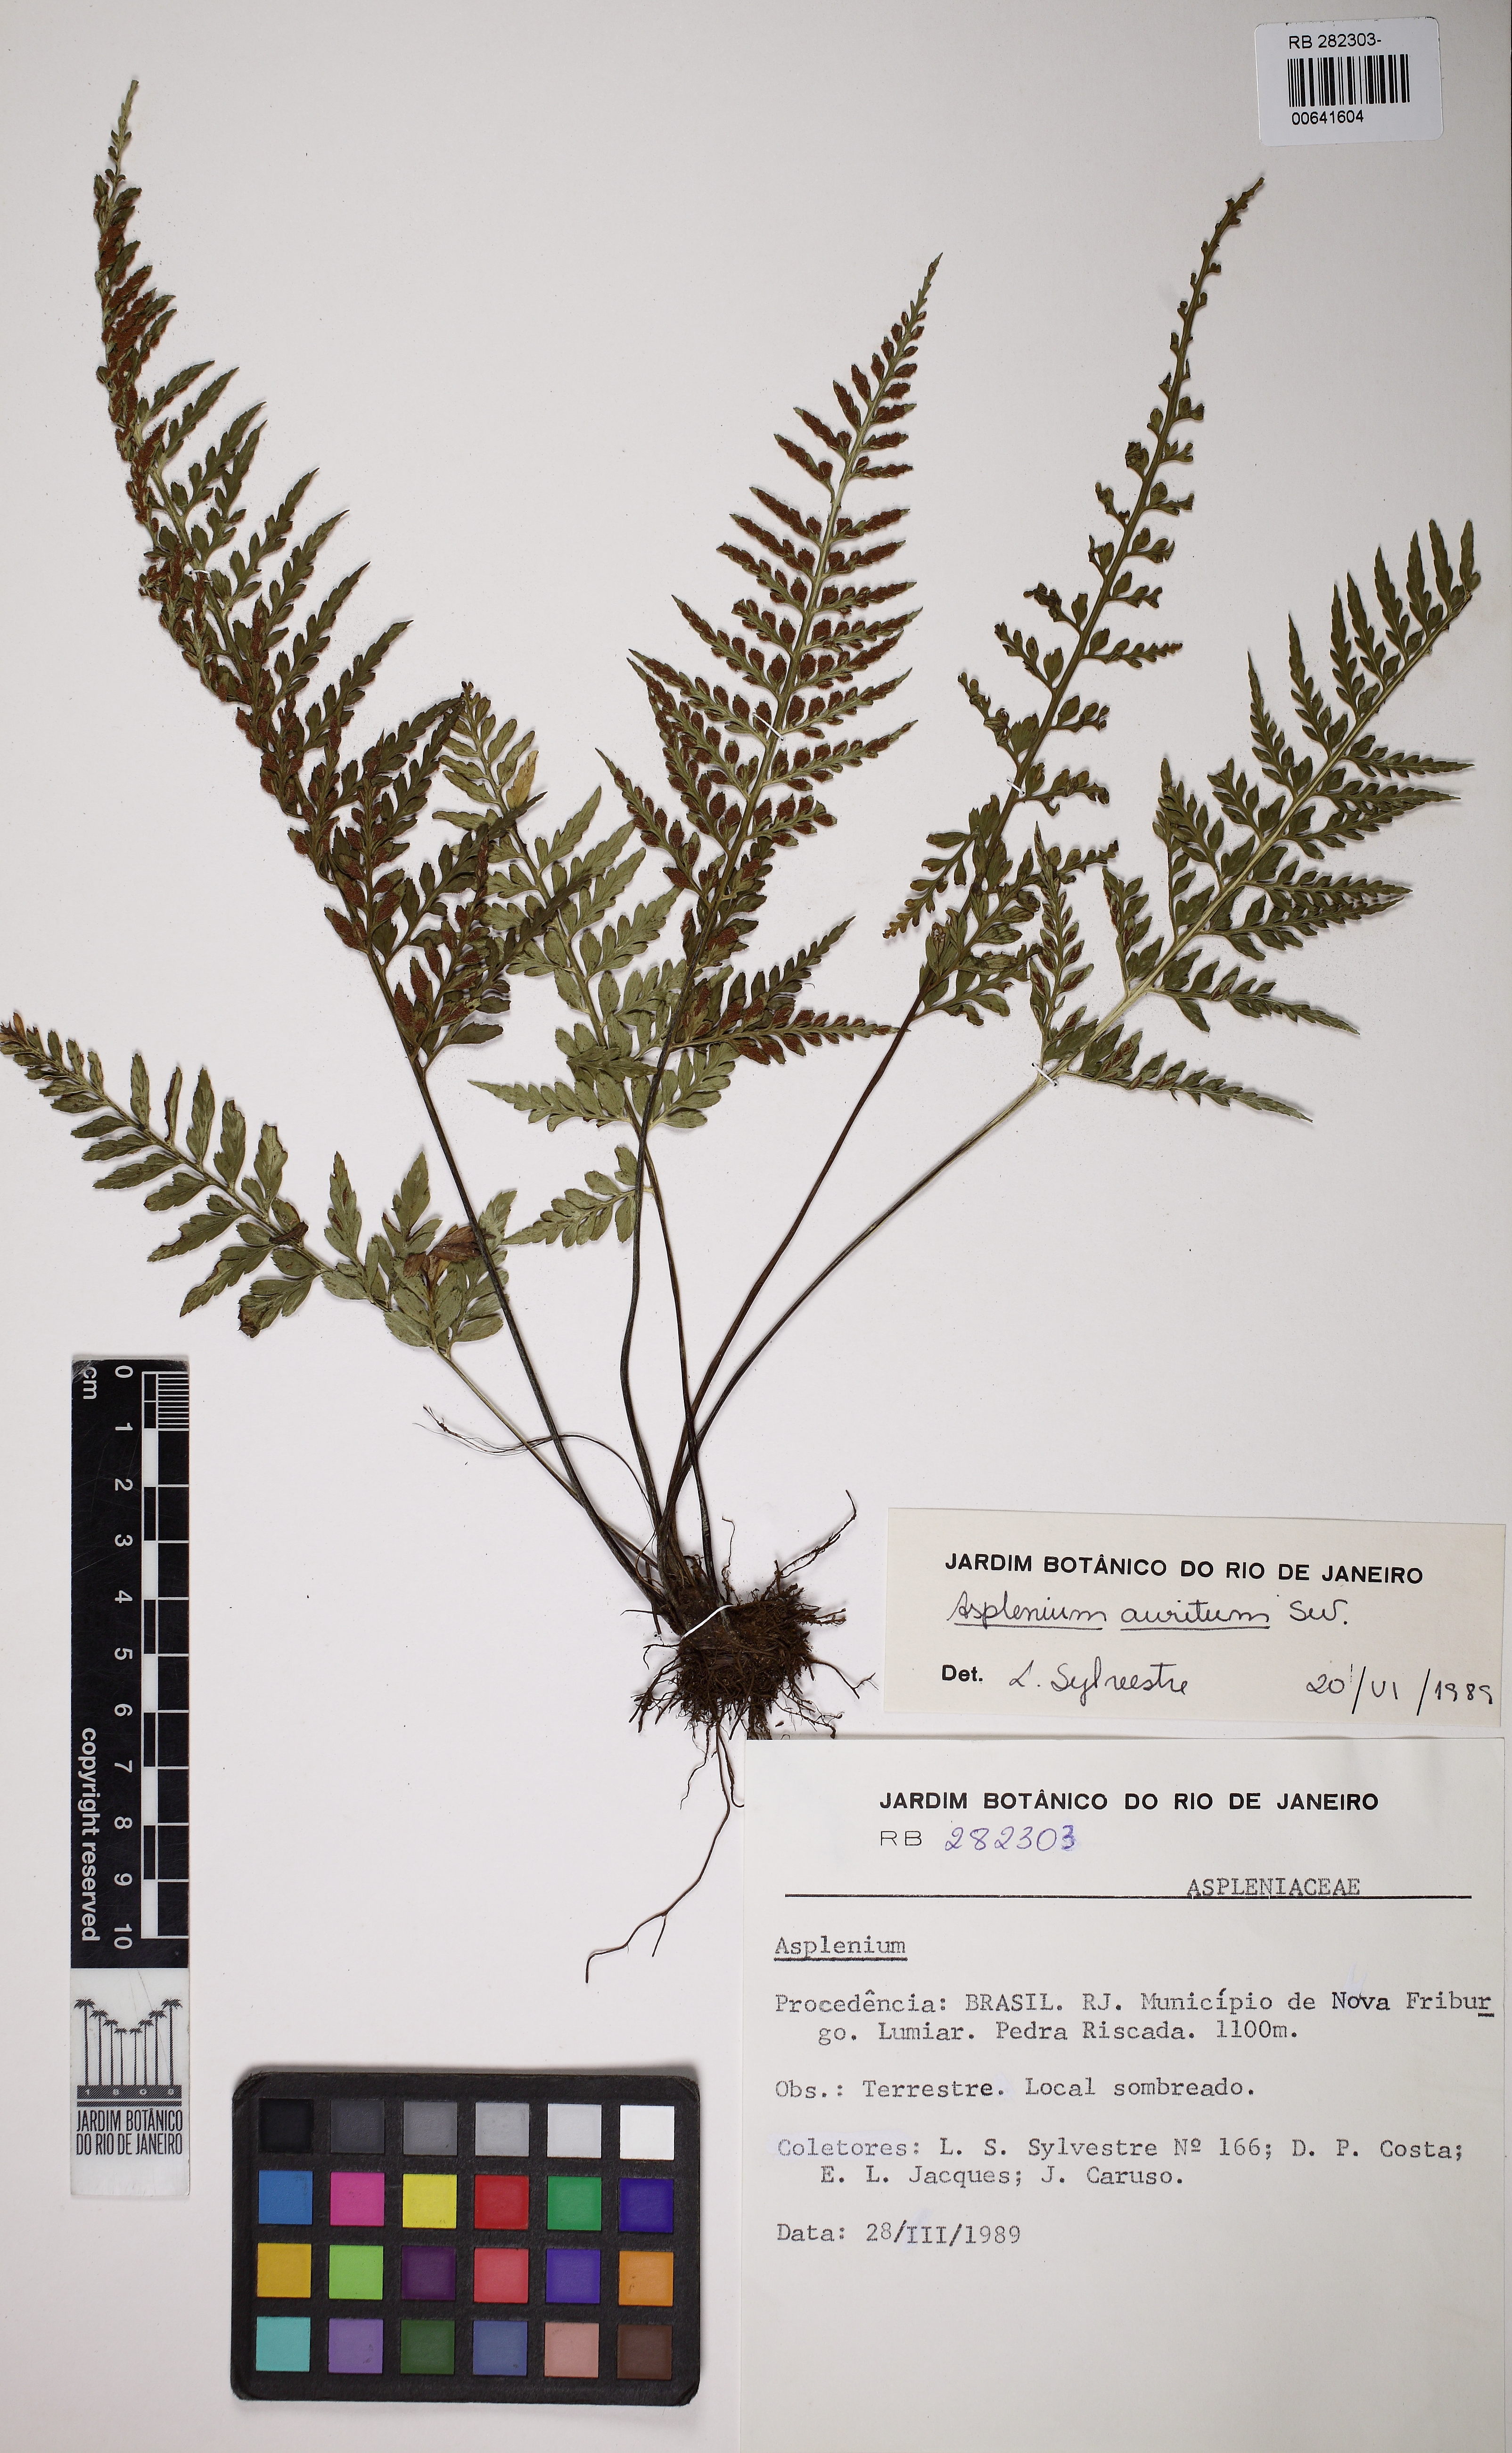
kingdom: Plantae
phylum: Tracheophyta
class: Polypodiopsida
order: Polypodiales
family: Aspleniaceae
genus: Asplenium
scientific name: Asplenium auritum
